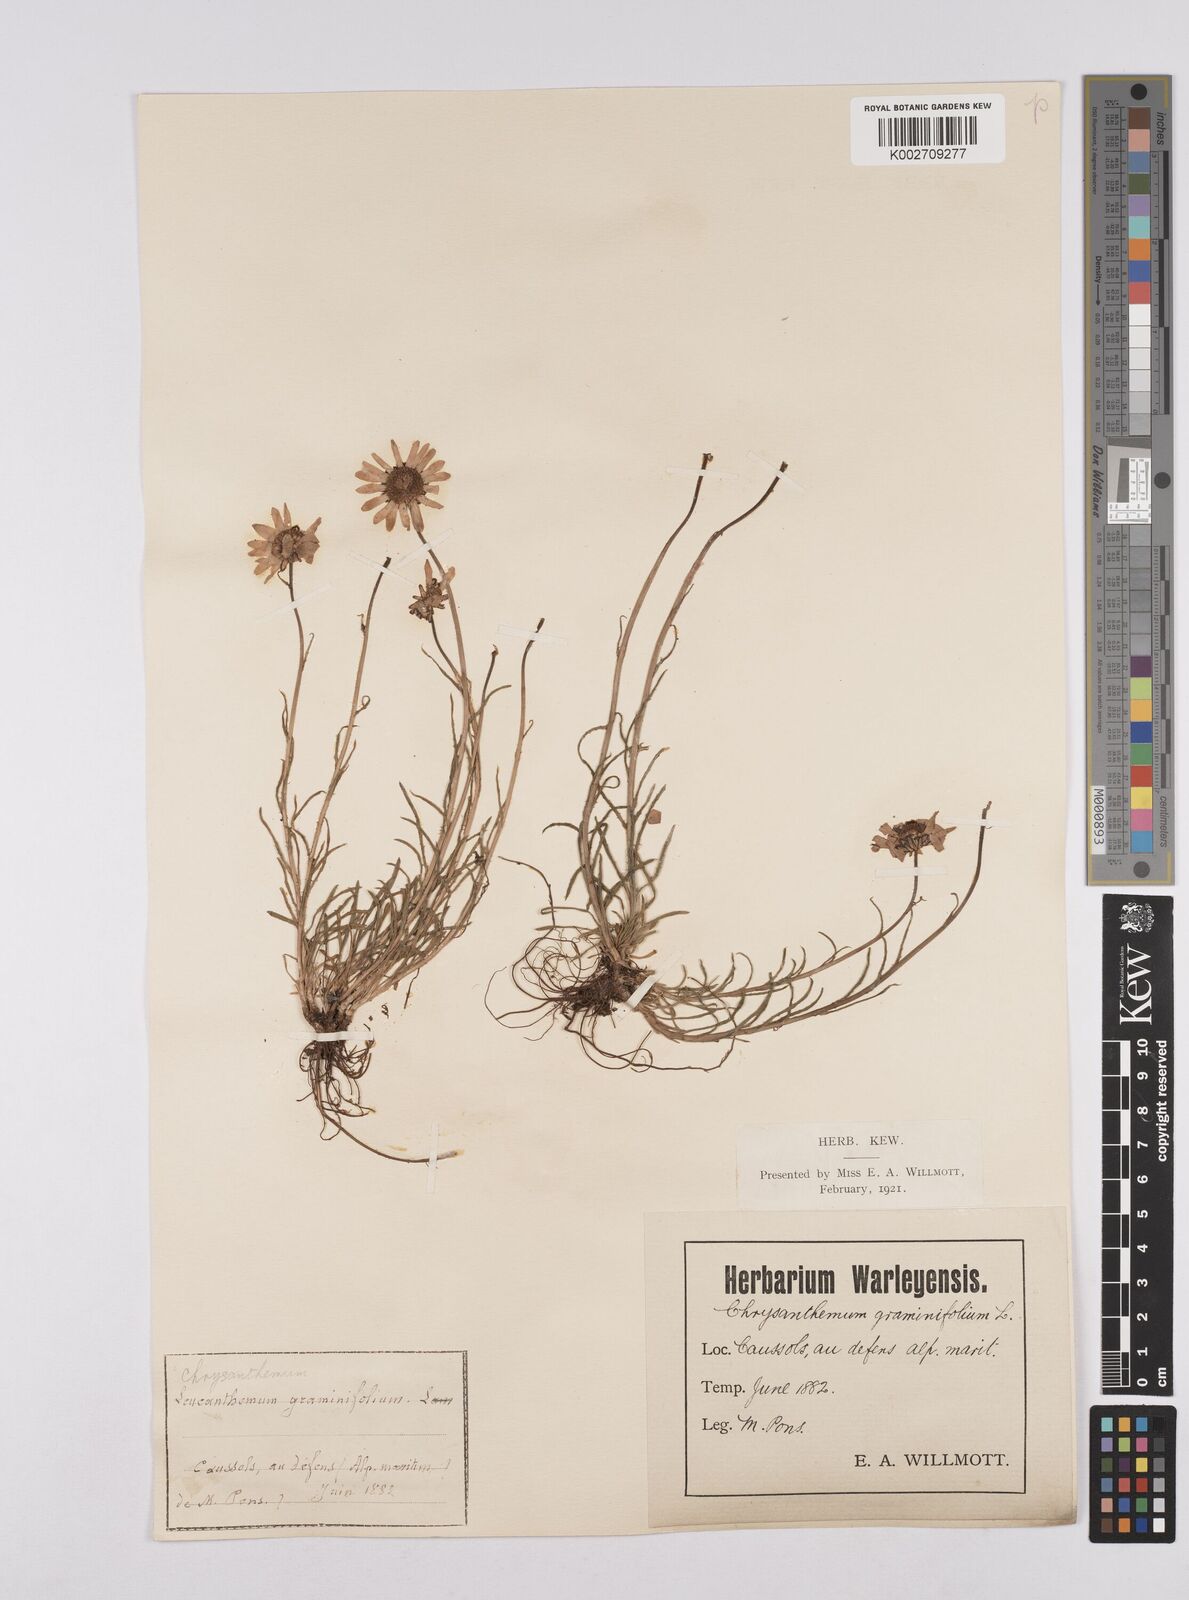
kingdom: Plantae
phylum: Tracheophyta
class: Magnoliopsida
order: Asterales
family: Asteraceae
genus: Leucanthemum
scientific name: Leucanthemum chloroticum
